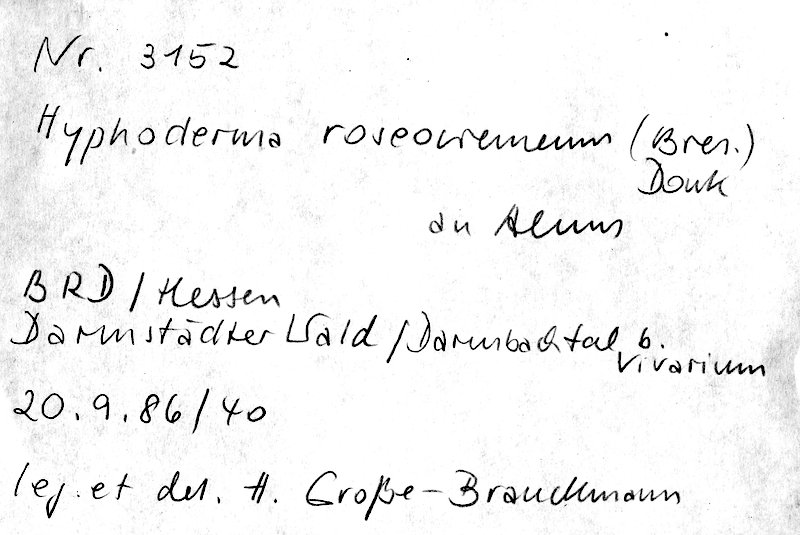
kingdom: Plantae
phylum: Tracheophyta
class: Magnoliopsida
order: Fagales
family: Betulaceae
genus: Alnus
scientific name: Alnus
